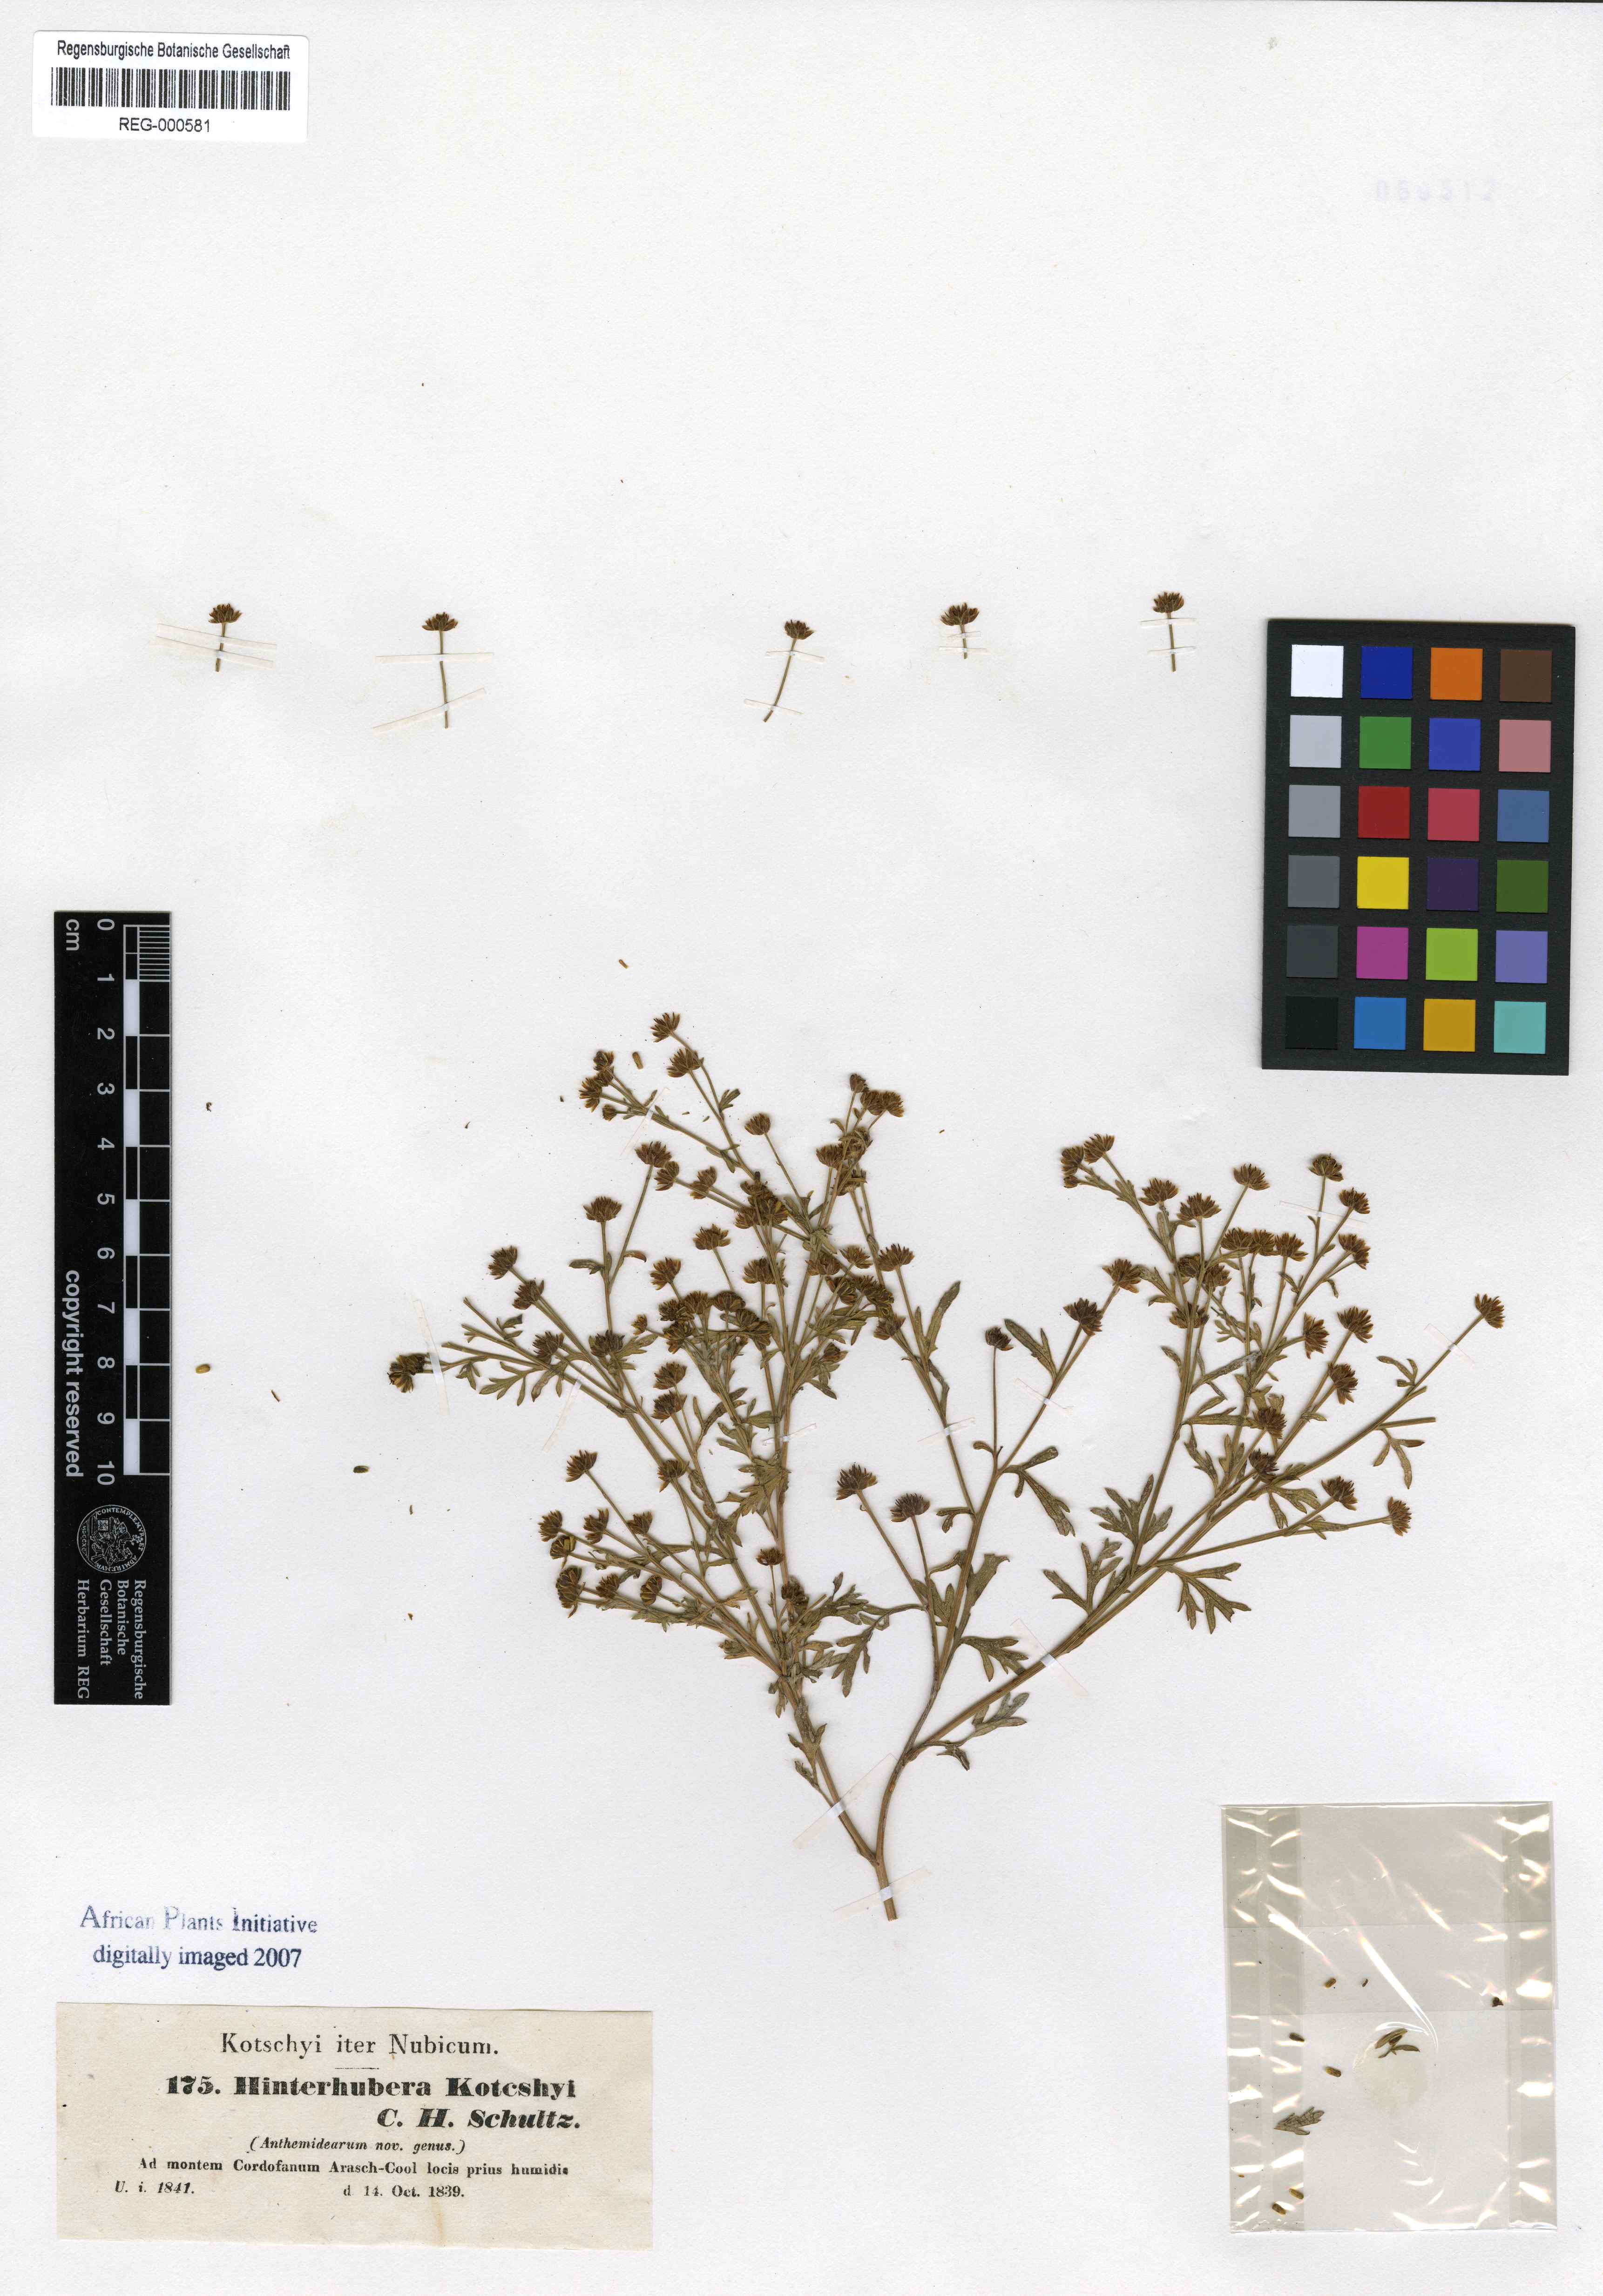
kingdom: Plantae
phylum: Tracheophyta
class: Magnoliopsida
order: Asterales
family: Asteraceae
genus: Chrysanthellum
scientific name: Chrysanthellum indicum
